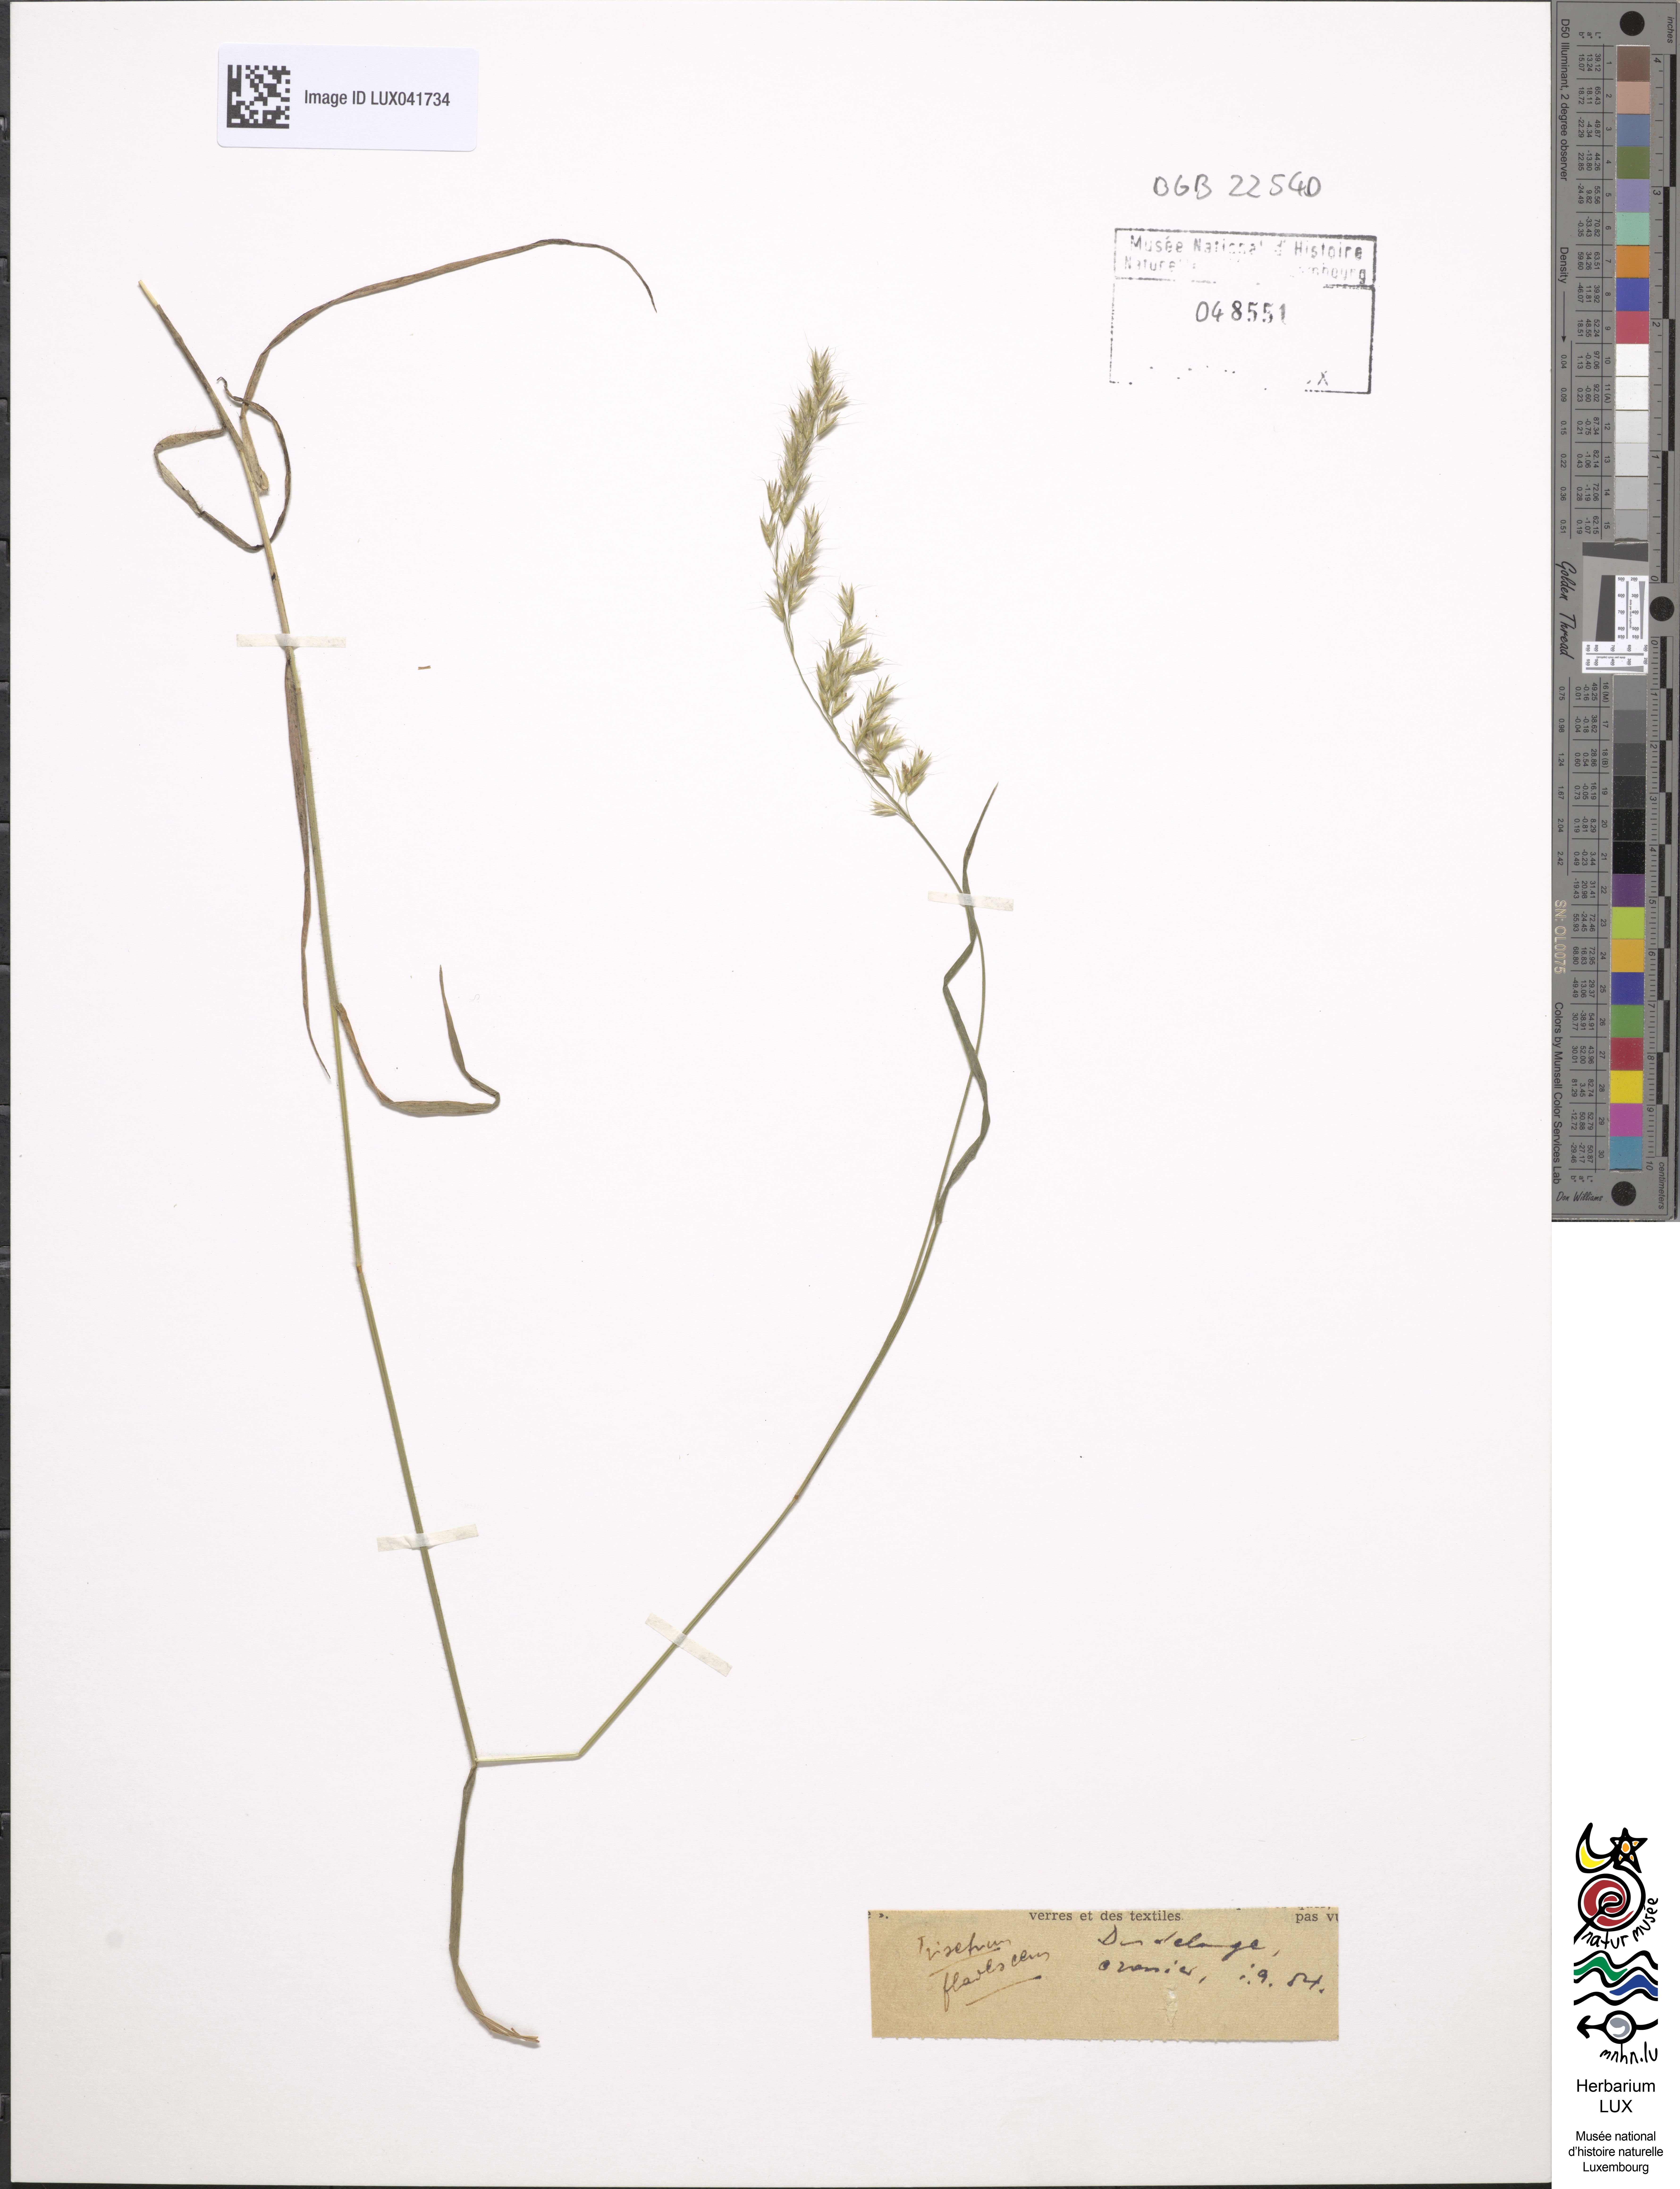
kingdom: Plantae
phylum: Tracheophyta
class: Liliopsida
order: Poales
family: Poaceae
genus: Trisetum
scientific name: Trisetum flavescens
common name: Yellow oat-grass
